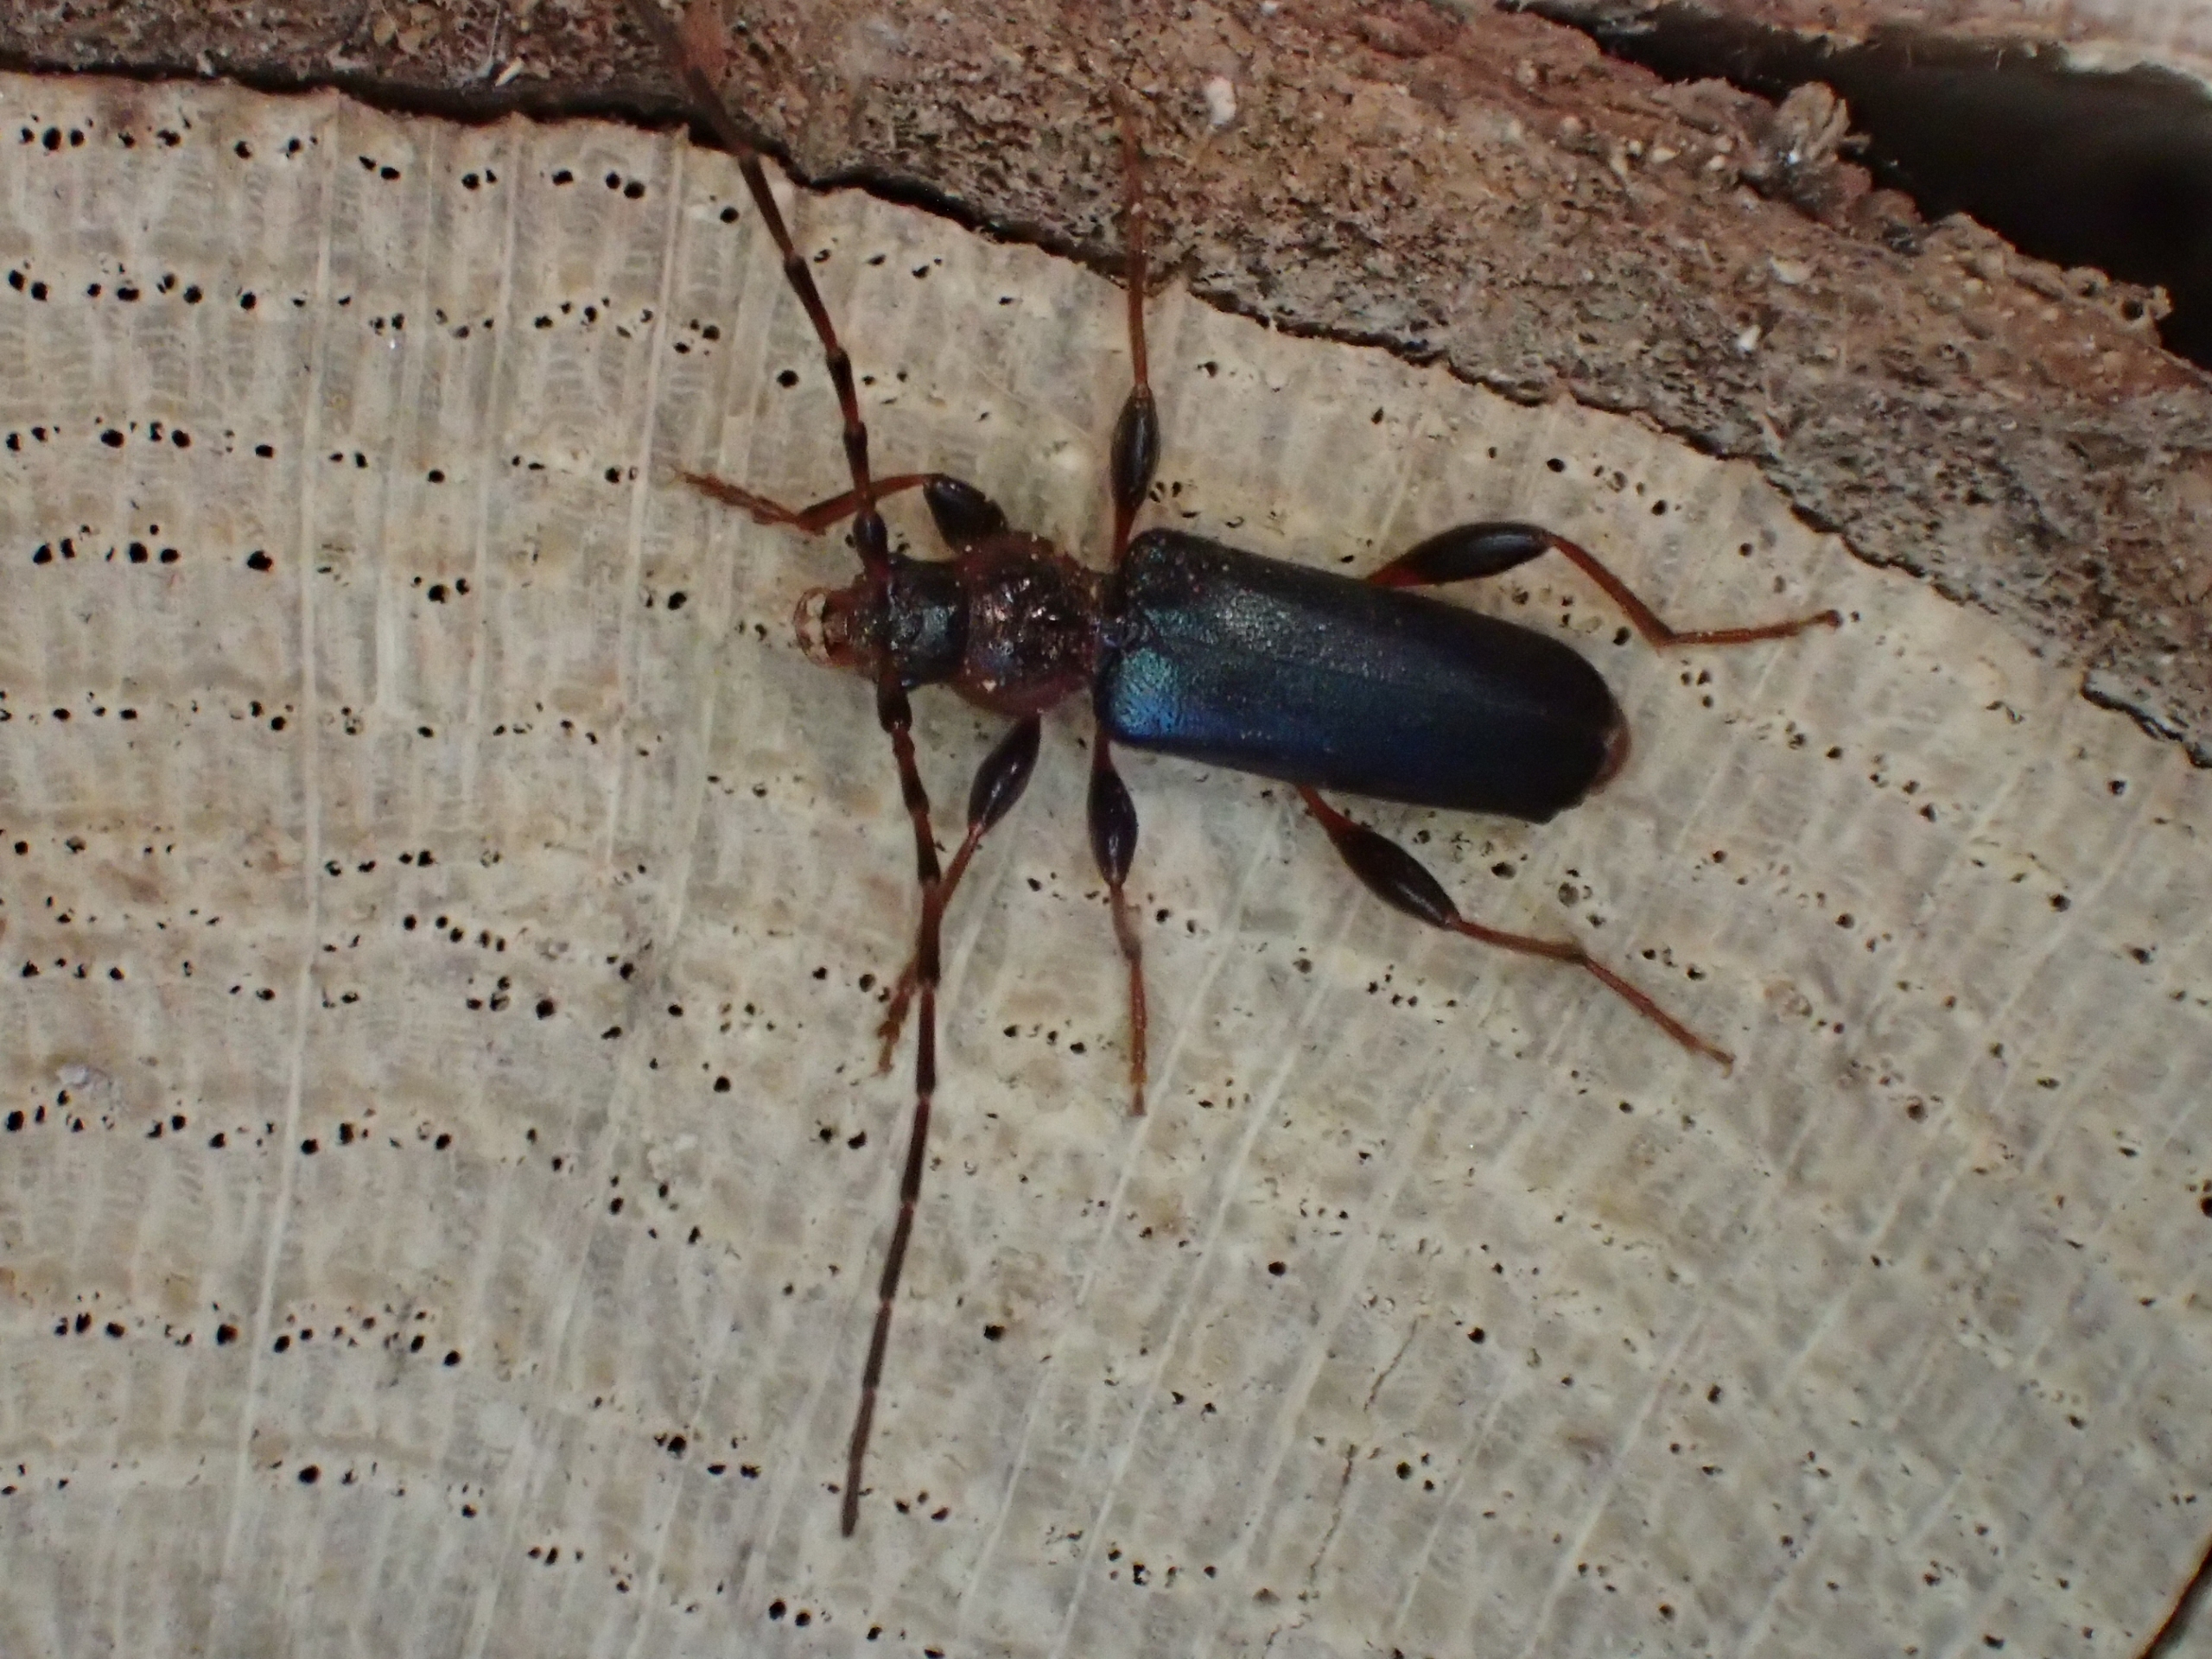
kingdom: Animalia
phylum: Arthropoda
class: Insecta
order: Coleoptera
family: Cerambycidae
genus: Phymatodes
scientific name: Phymatodes testaceus
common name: Bøgebuk
